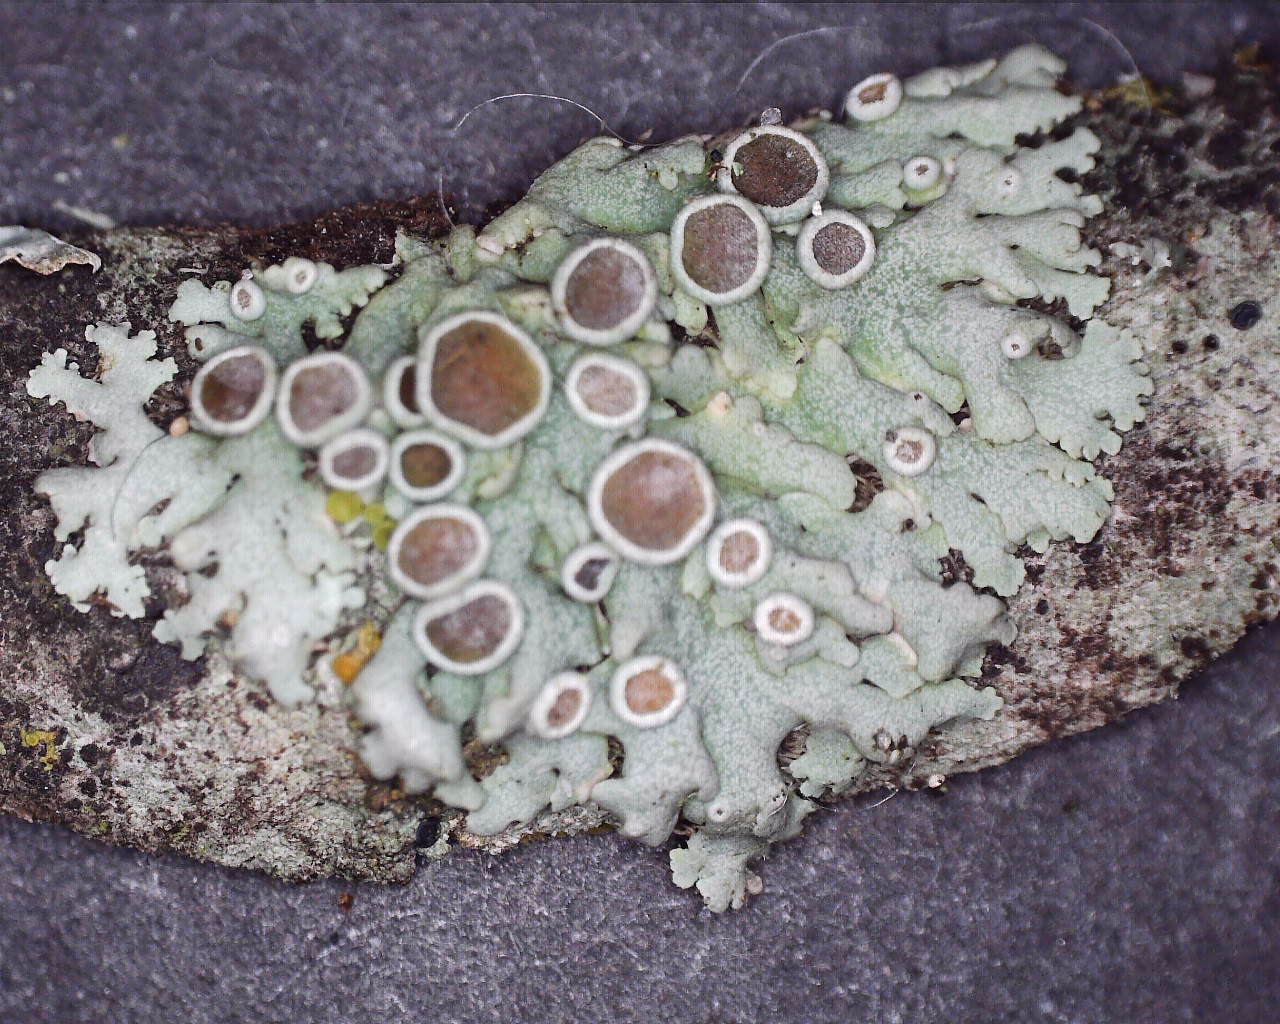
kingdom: Fungi
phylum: Ascomycota
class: Lecanoromycetes
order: Caliciales
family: Physciaceae
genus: Physcia
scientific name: Physcia aipolia
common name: hvidprikket rosetlav
